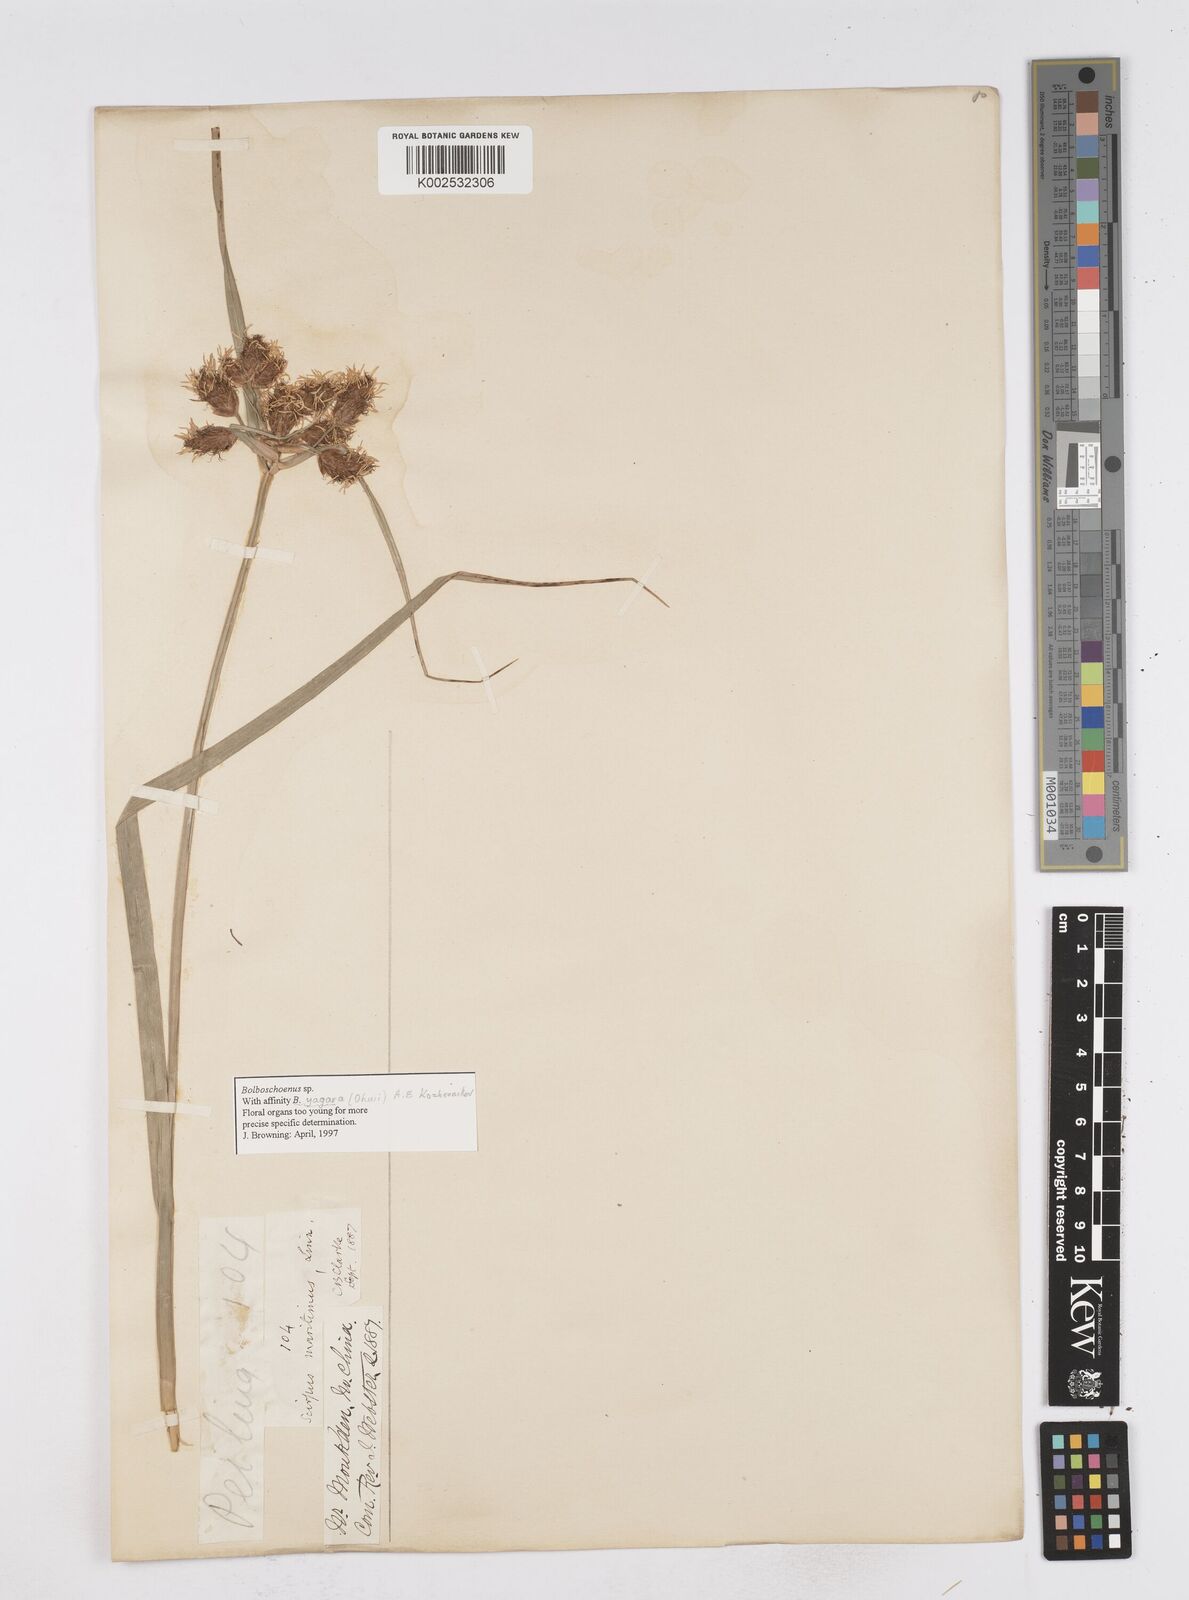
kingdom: Plantae
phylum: Tracheophyta
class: Liliopsida
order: Poales
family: Cyperaceae
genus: Bolboschoenus
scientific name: Bolboschoenus maritimus
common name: Sea club-rush
